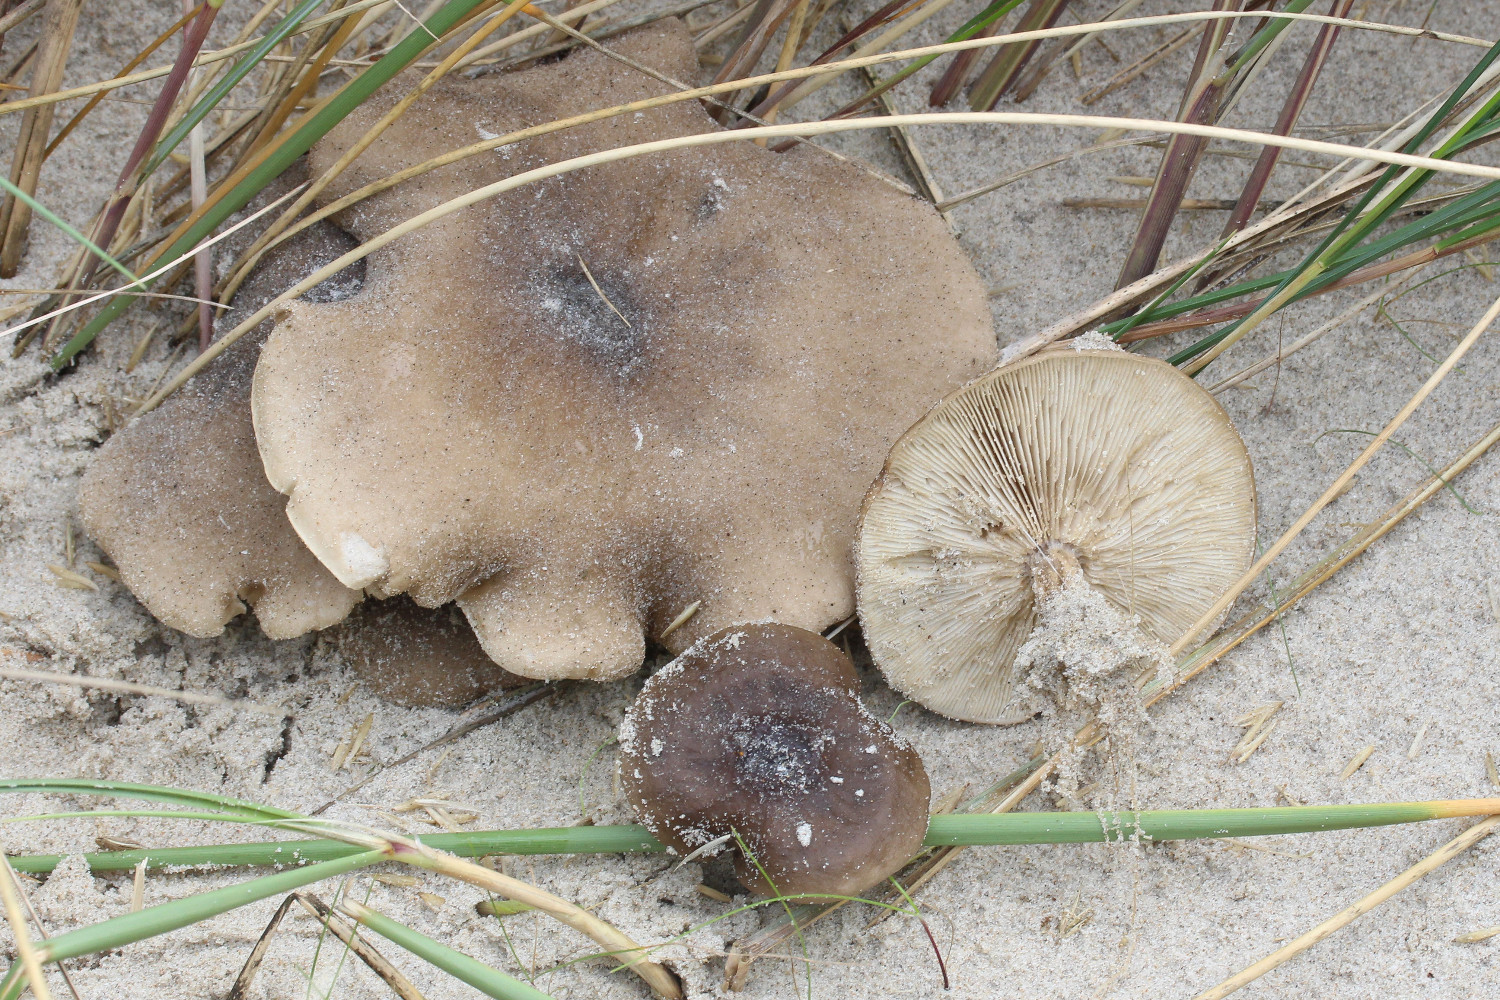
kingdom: Fungi
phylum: Basidiomycota
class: Agaricomycetes
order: Agaricales
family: Tricholomataceae
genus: Melanoleuca
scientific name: Melanoleuca ammophila
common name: gråbladet munkehat
